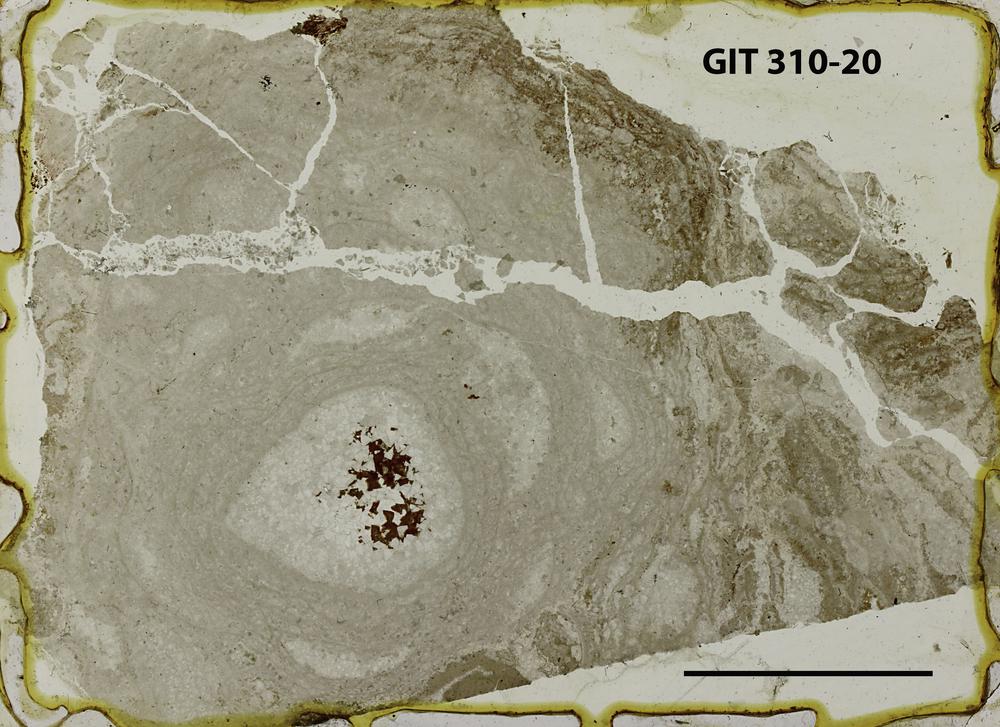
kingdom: Animalia
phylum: Porifera
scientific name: Porifera
